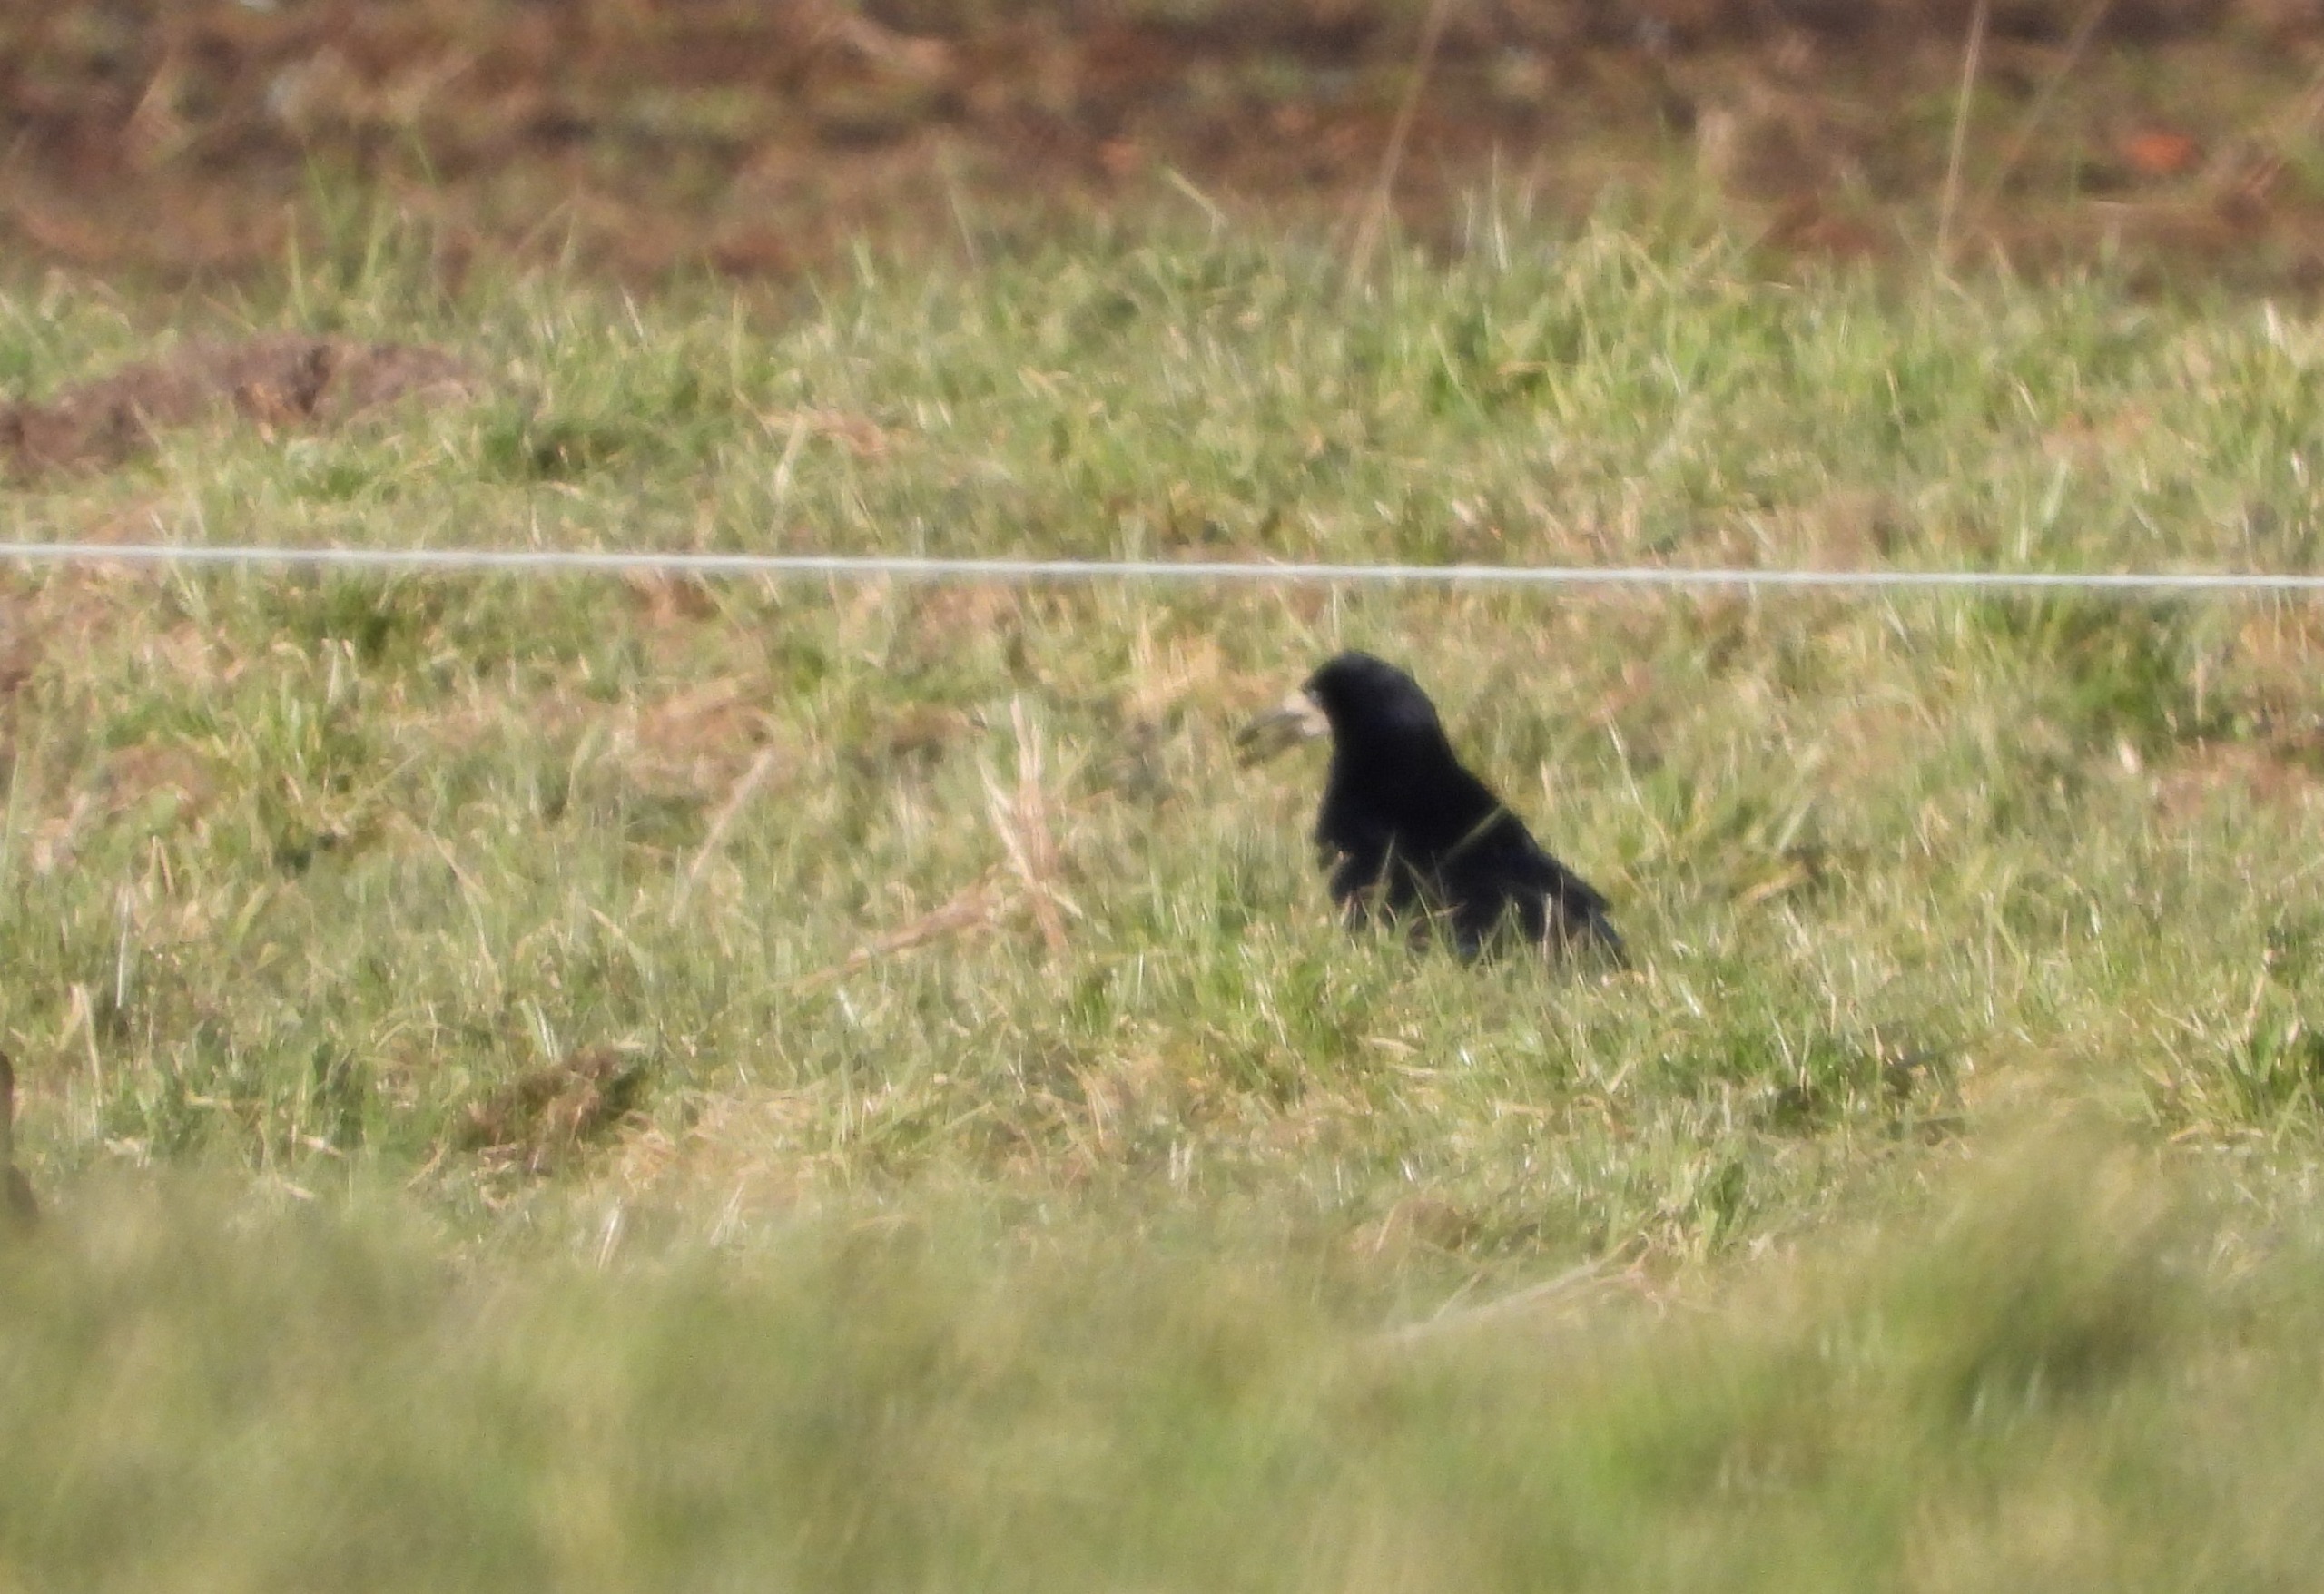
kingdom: Animalia
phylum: Chordata
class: Aves
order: Passeriformes
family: Corvidae
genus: Corvus
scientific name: Corvus frugilegus
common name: Råge
